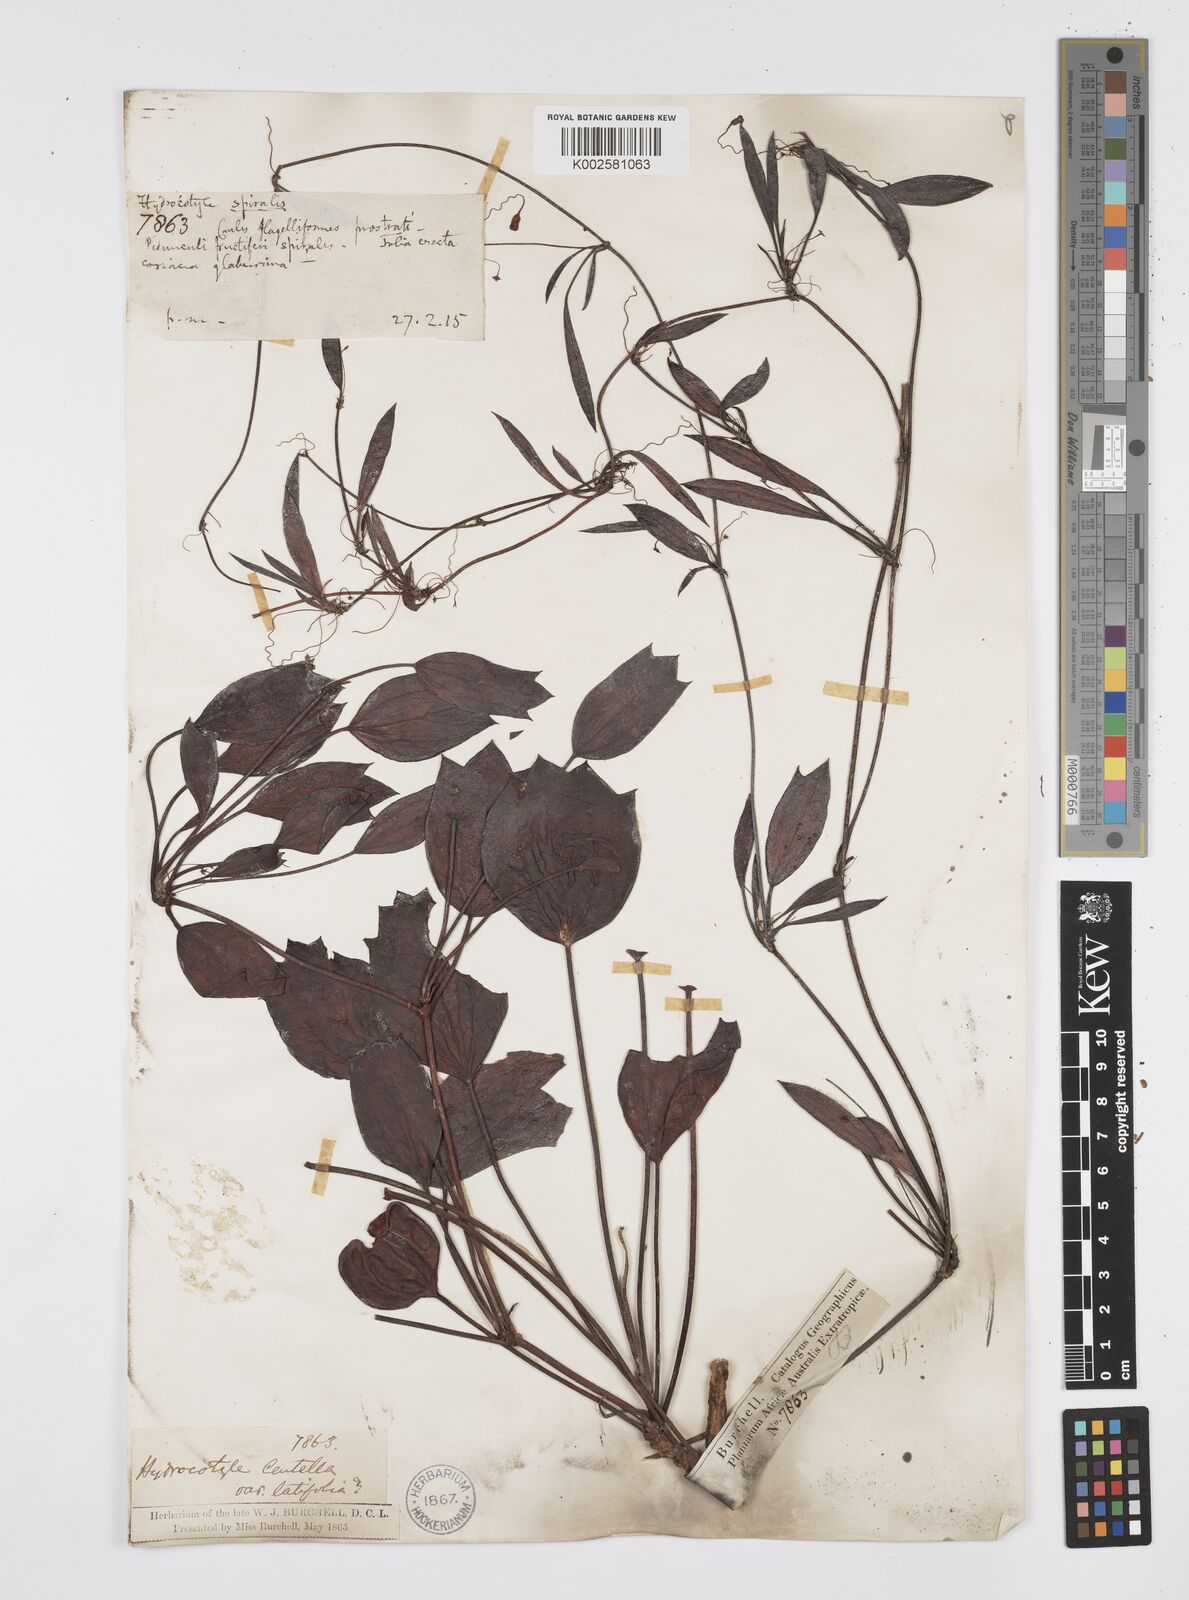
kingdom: Plantae
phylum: Tracheophyta
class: Magnoliopsida
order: Apiales
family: Apiaceae
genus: Centella
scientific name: Centella glabrata
